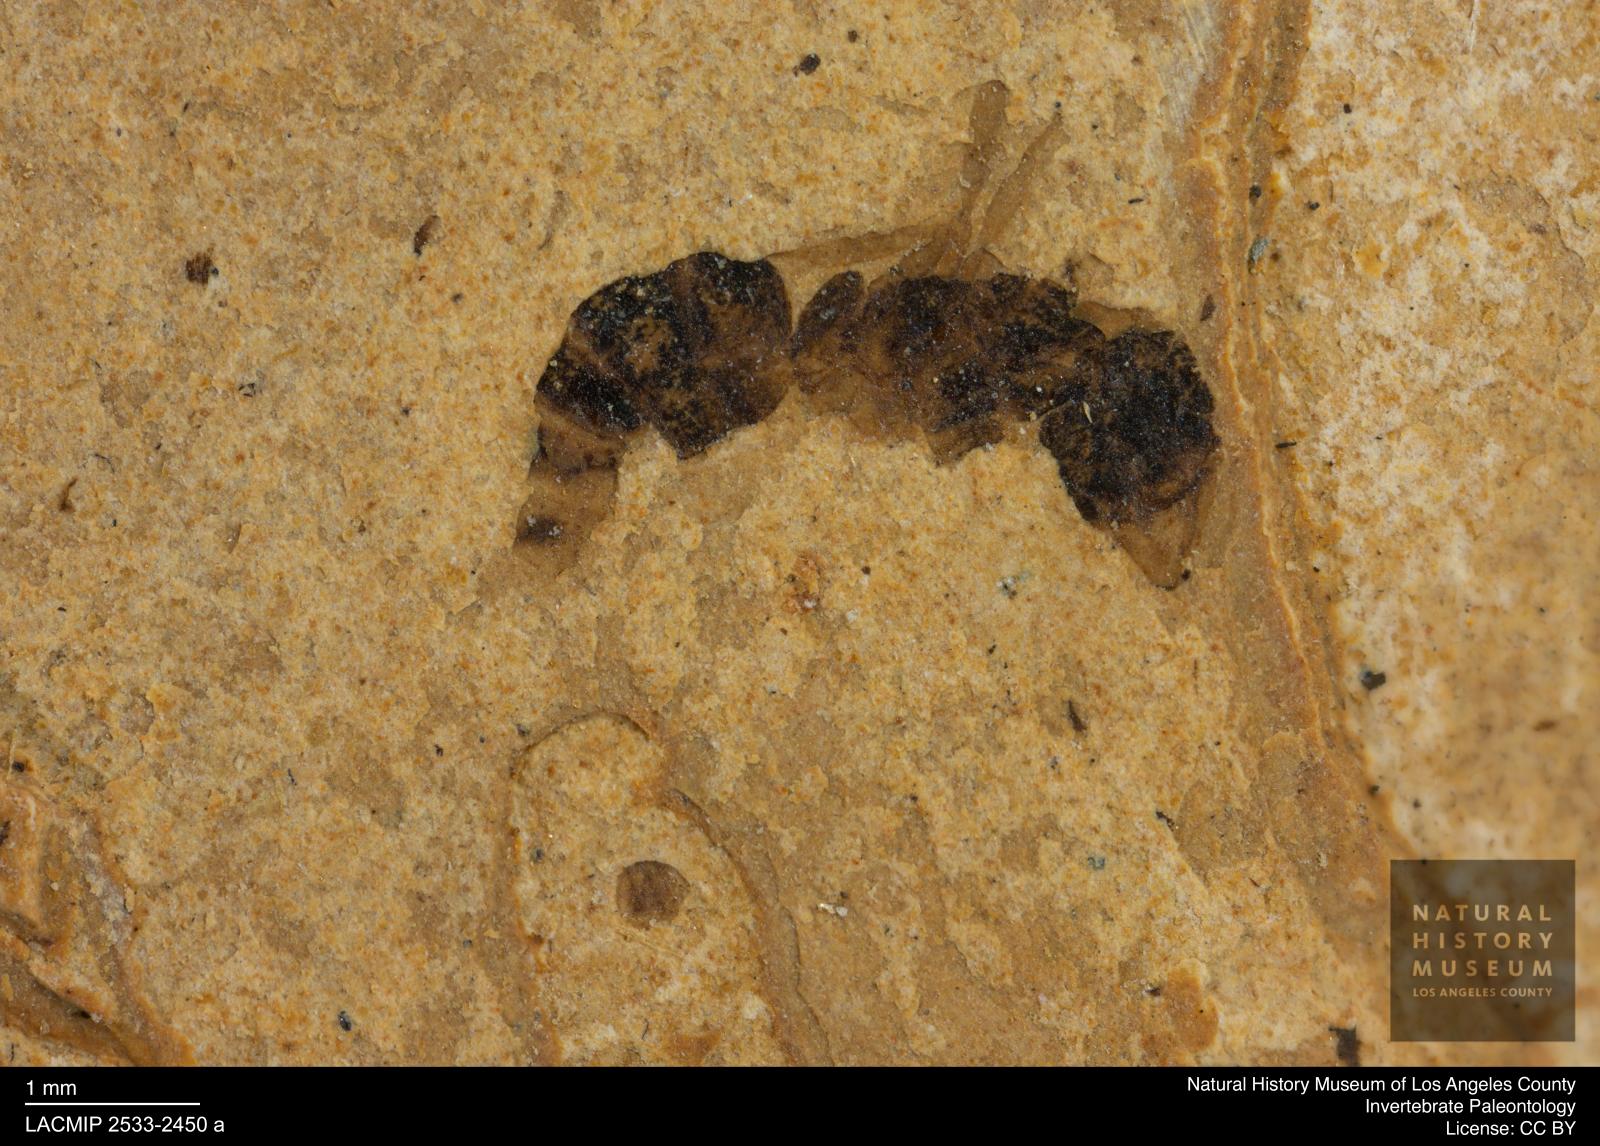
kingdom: Animalia
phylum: Arthropoda
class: Insecta
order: Hymenoptera
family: Formicidae
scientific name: Formicidae
